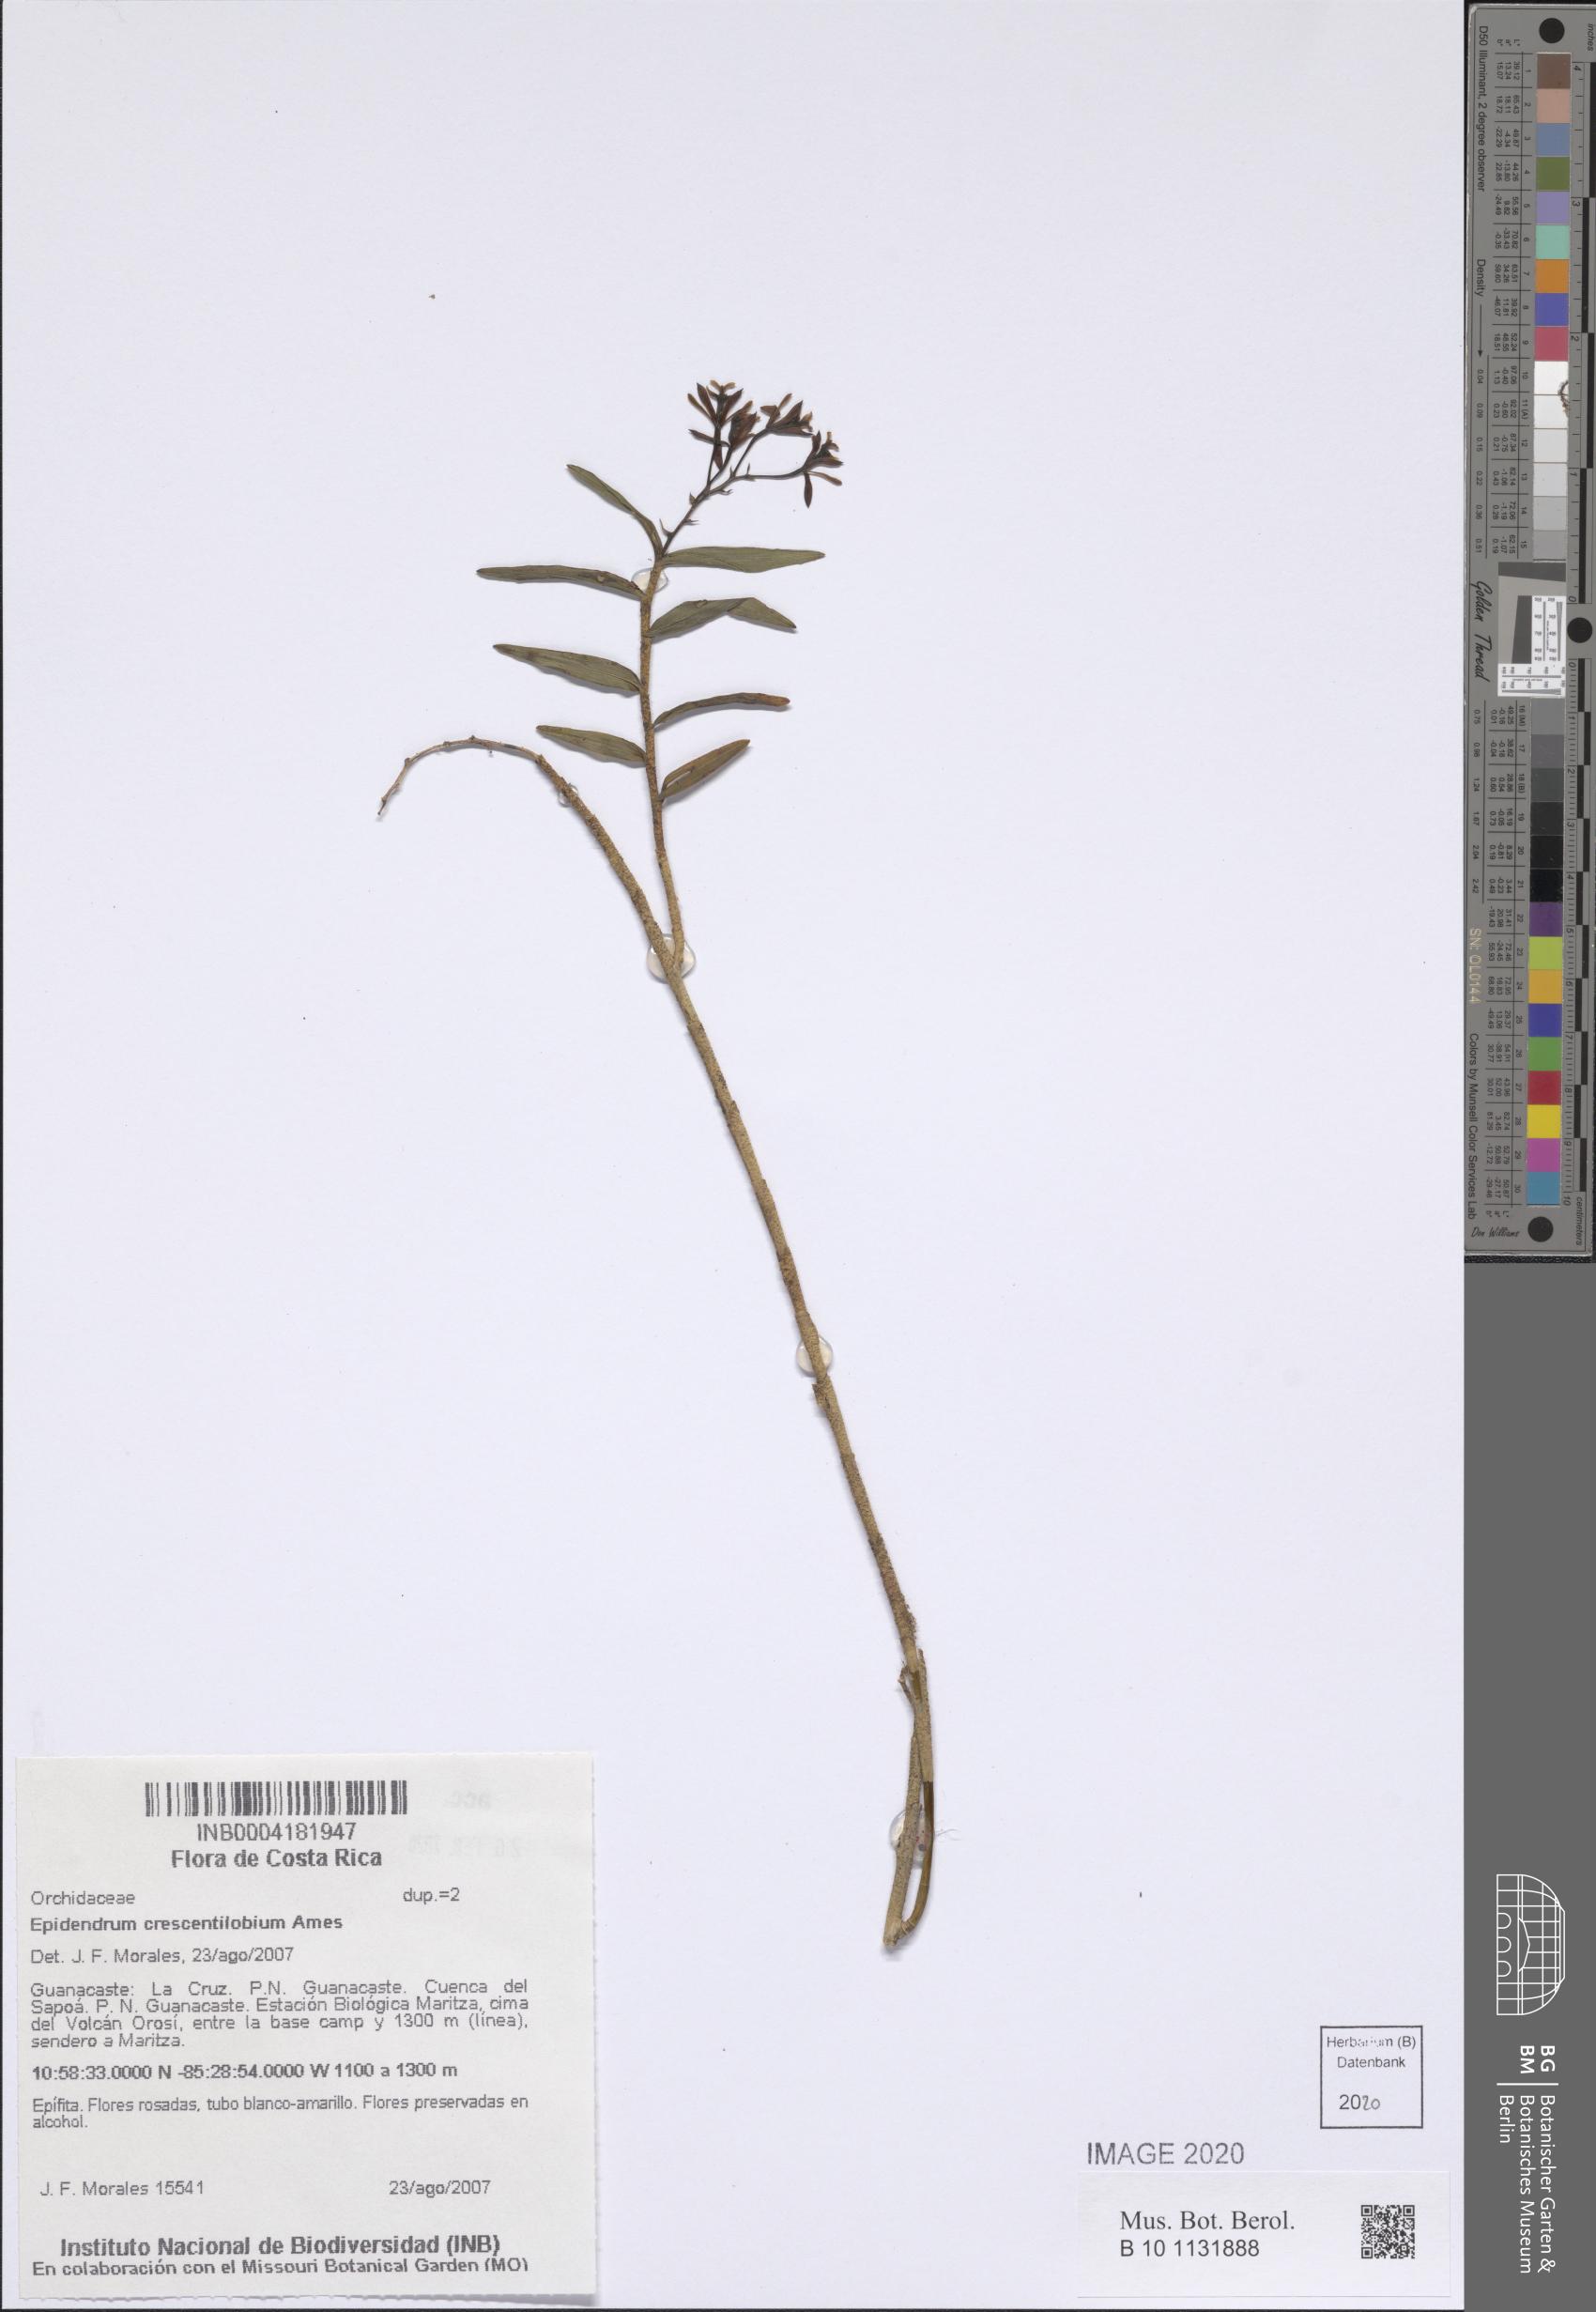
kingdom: Plantae
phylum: Tracheophyta
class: Liliopsida
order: Asparagales
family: Orchidaceae
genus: Epidendrum
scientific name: Epidendrum crescentilobium
